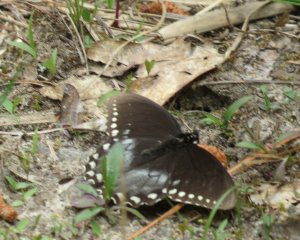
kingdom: Animalia
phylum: Arthropoda
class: Insecta
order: Lepidoptera
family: Papilionidae
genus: Pterourus
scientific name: Pterourus troilus
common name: Spicebush Swallowtail
